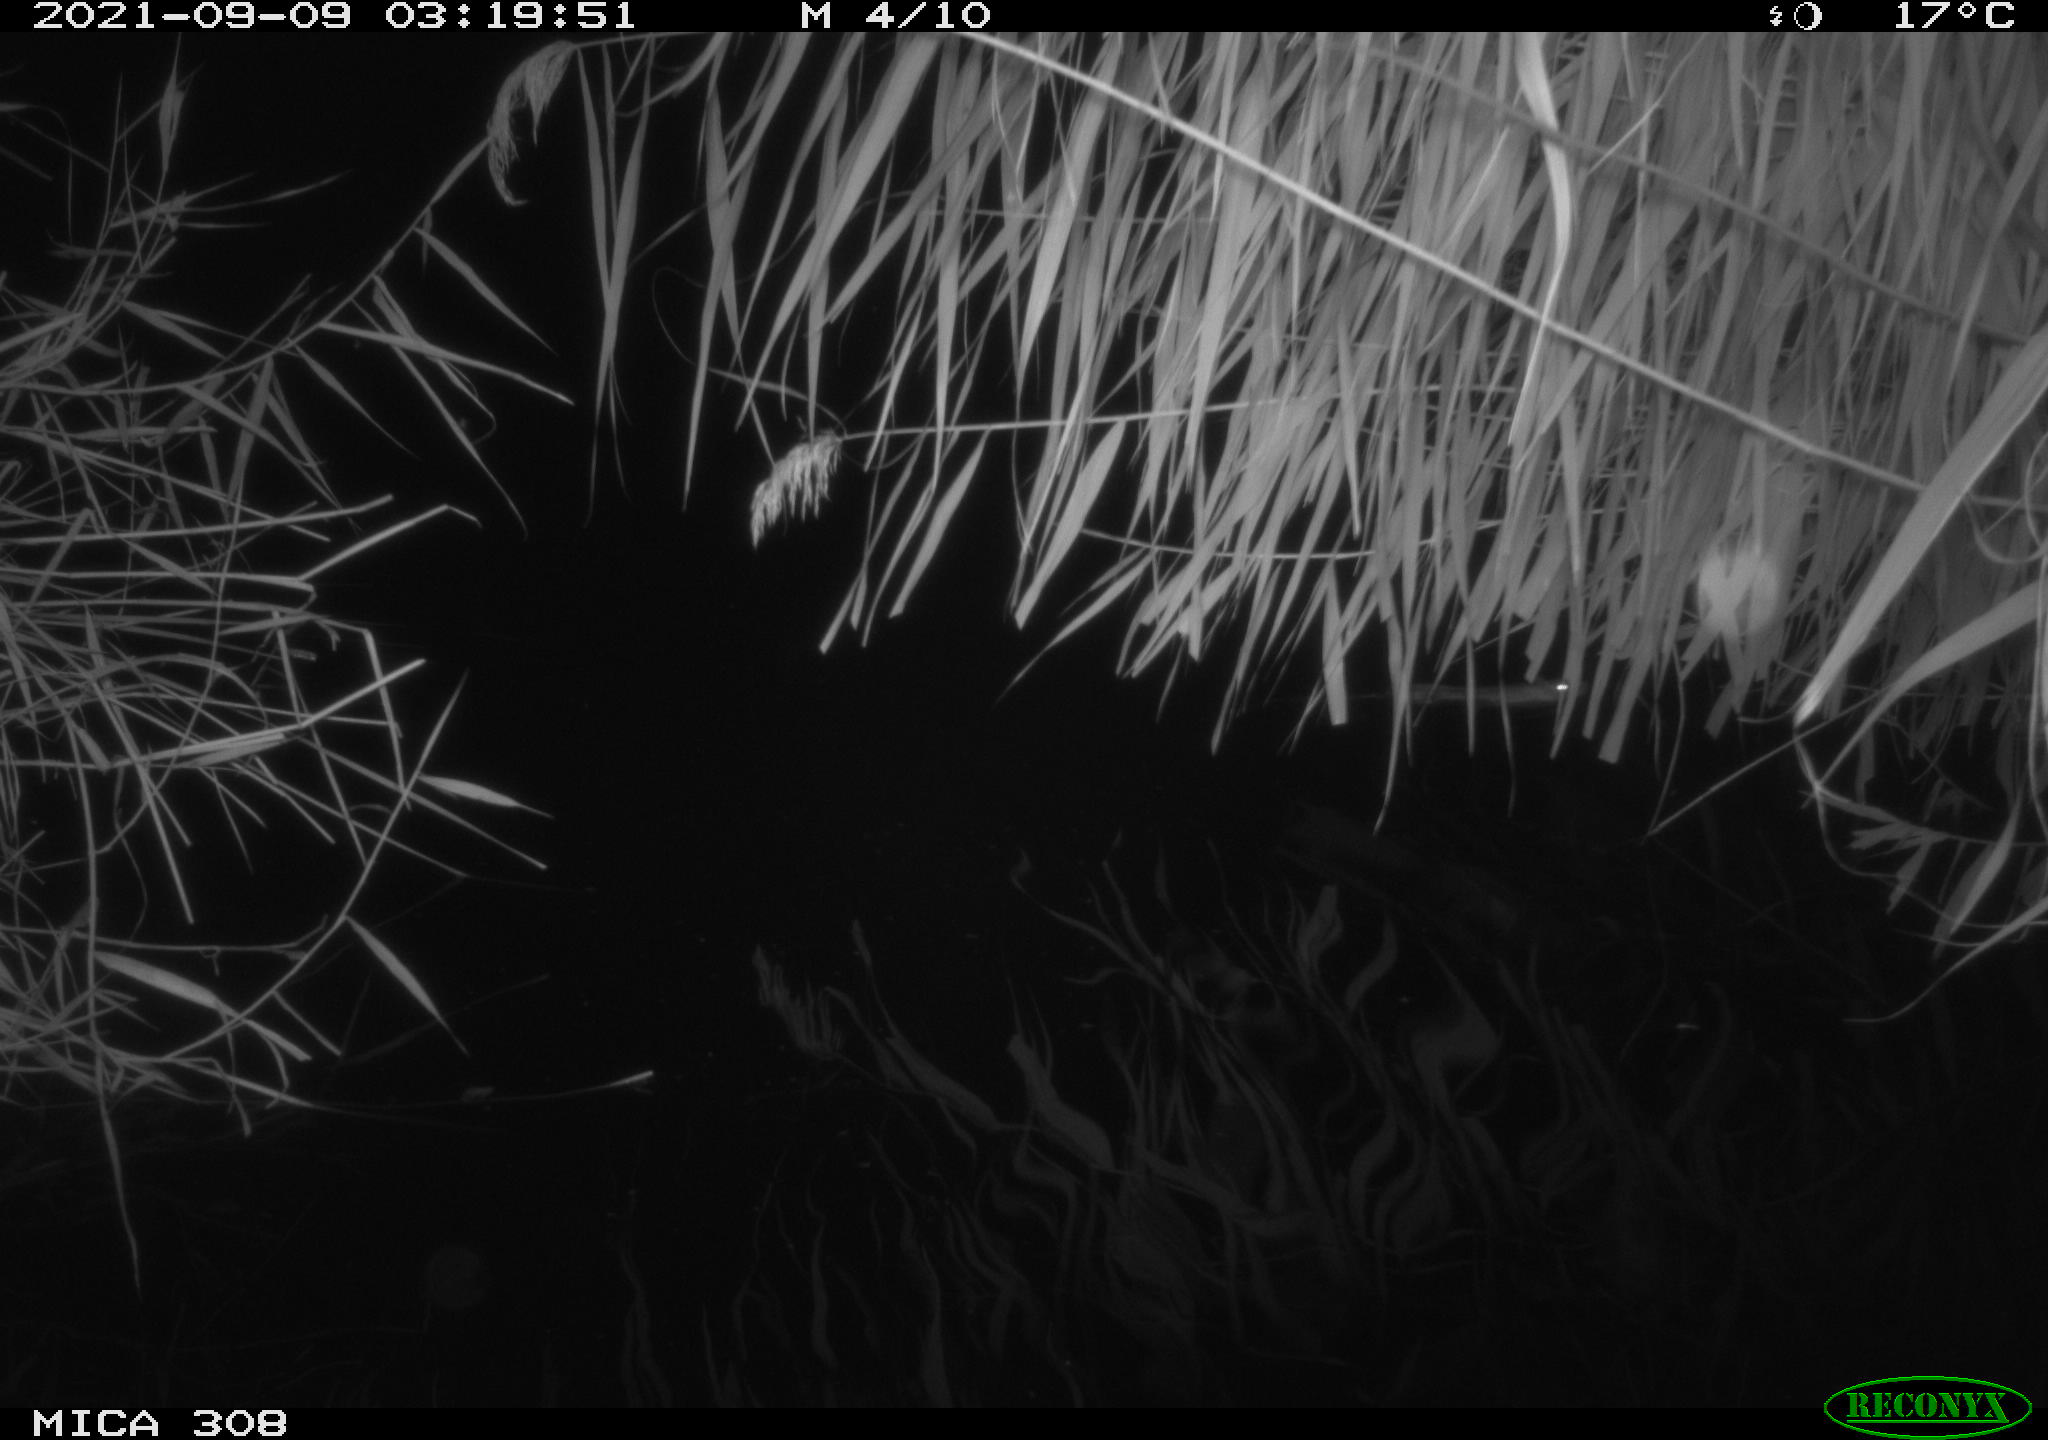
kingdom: Animalia
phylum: Chordata
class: Mammalia
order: Rodentia
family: Muridae
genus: Rattus
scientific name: Rattus norvegicus
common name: Brown rat
